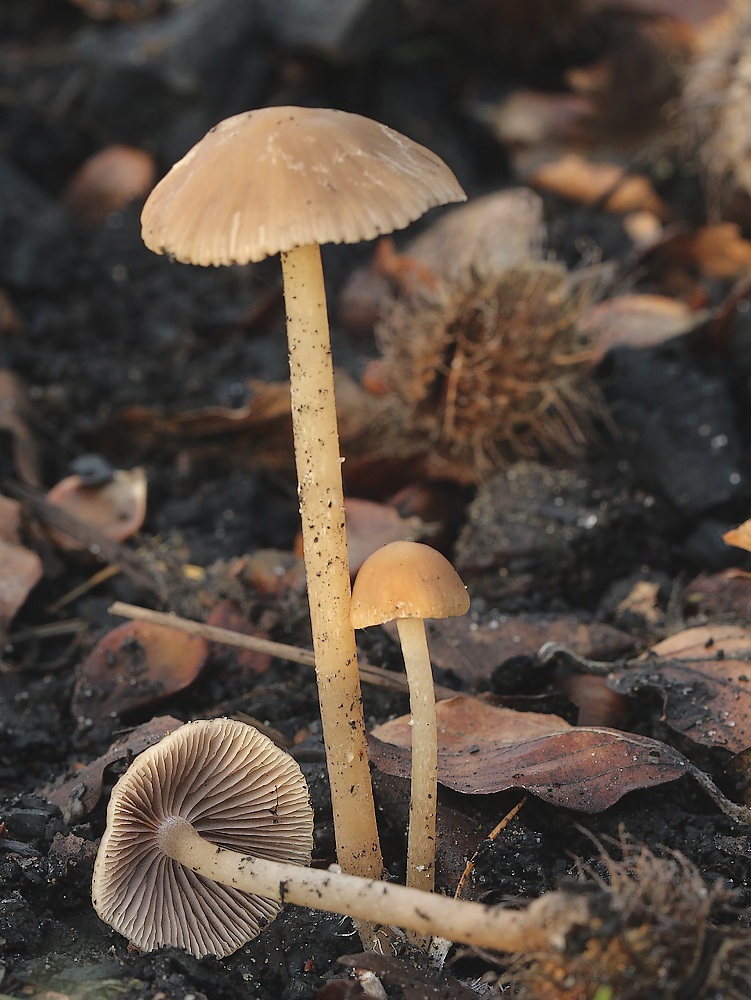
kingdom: Fungi
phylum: Basidiomycota
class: Agaricomycetes
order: Agaricales
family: Psathyrellaceae
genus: Psathyrella
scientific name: Psathyrella
